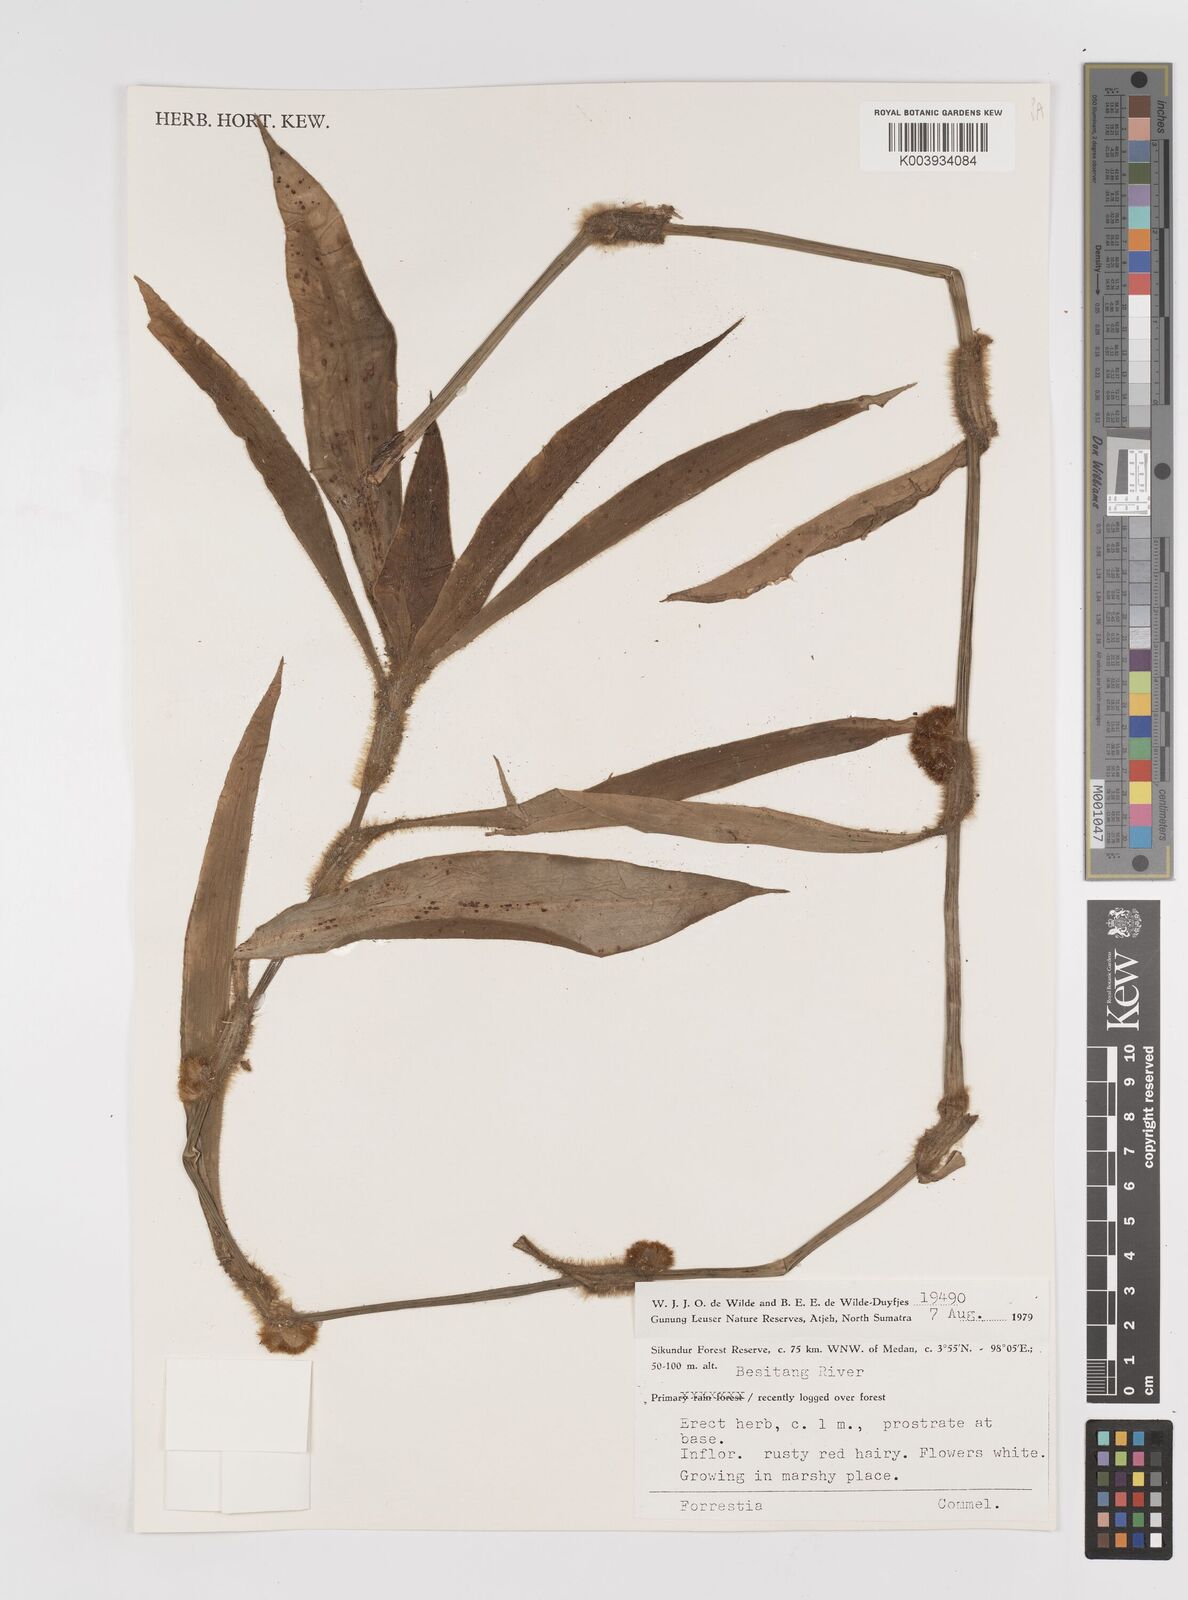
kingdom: Plantae
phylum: Tracheophyta
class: Liliopsida
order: Commelinales
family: Commelinaceae
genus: Amischotolype
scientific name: Amischotolype
